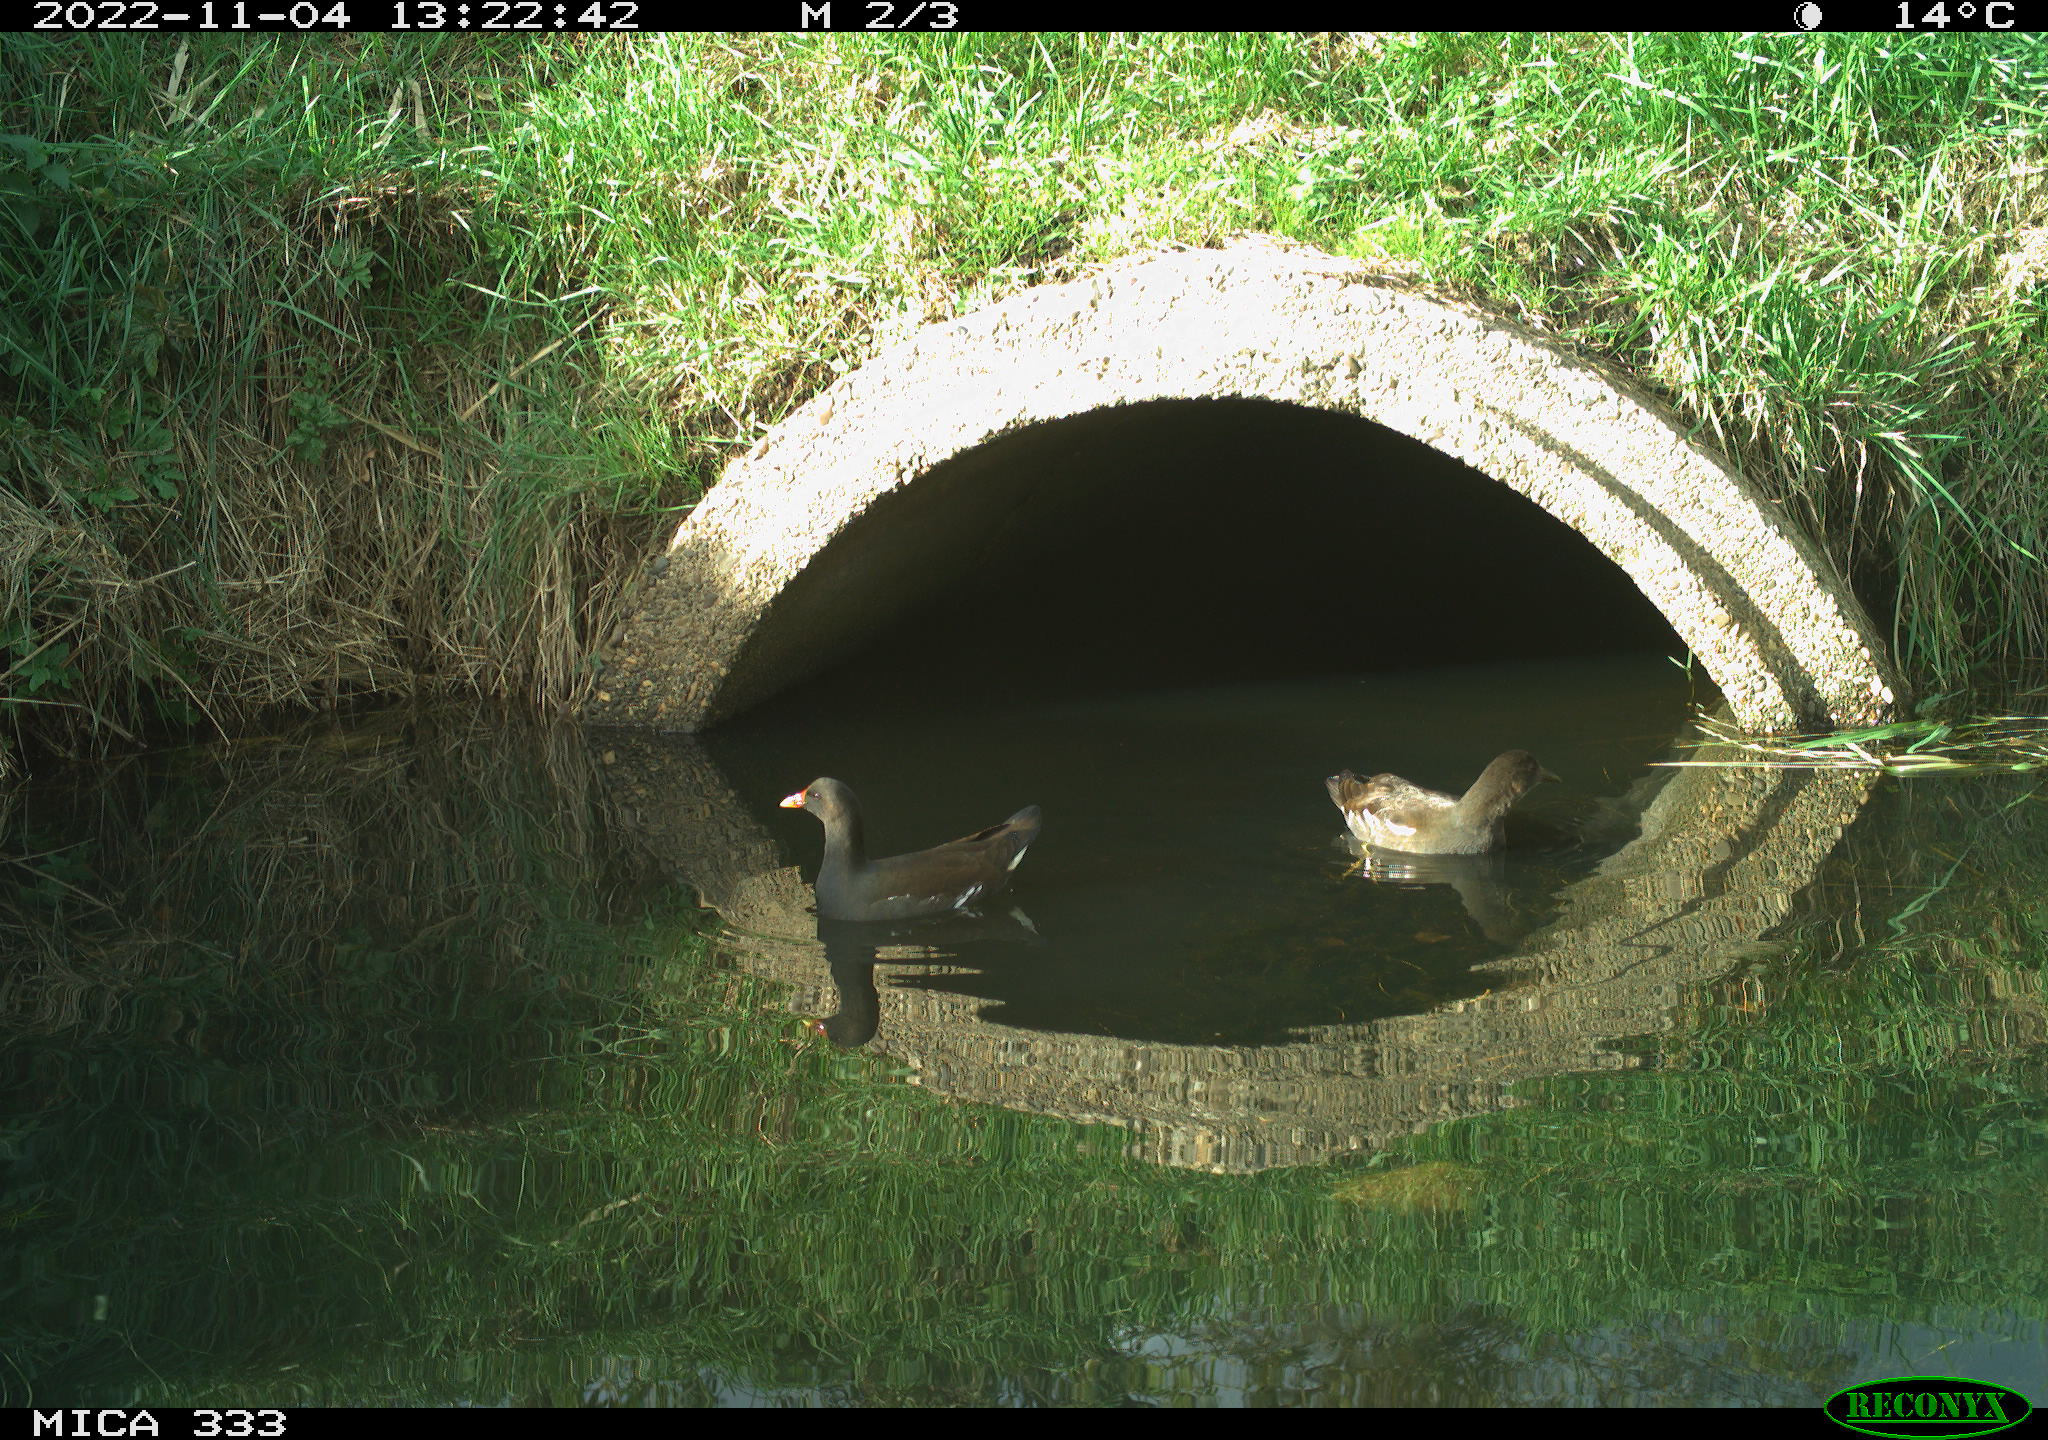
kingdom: Animalia
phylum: Chordata
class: Aves
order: Gruiformes
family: Rallidae
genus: Gallinula
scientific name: Gallinula chloropus
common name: Common moorhen
